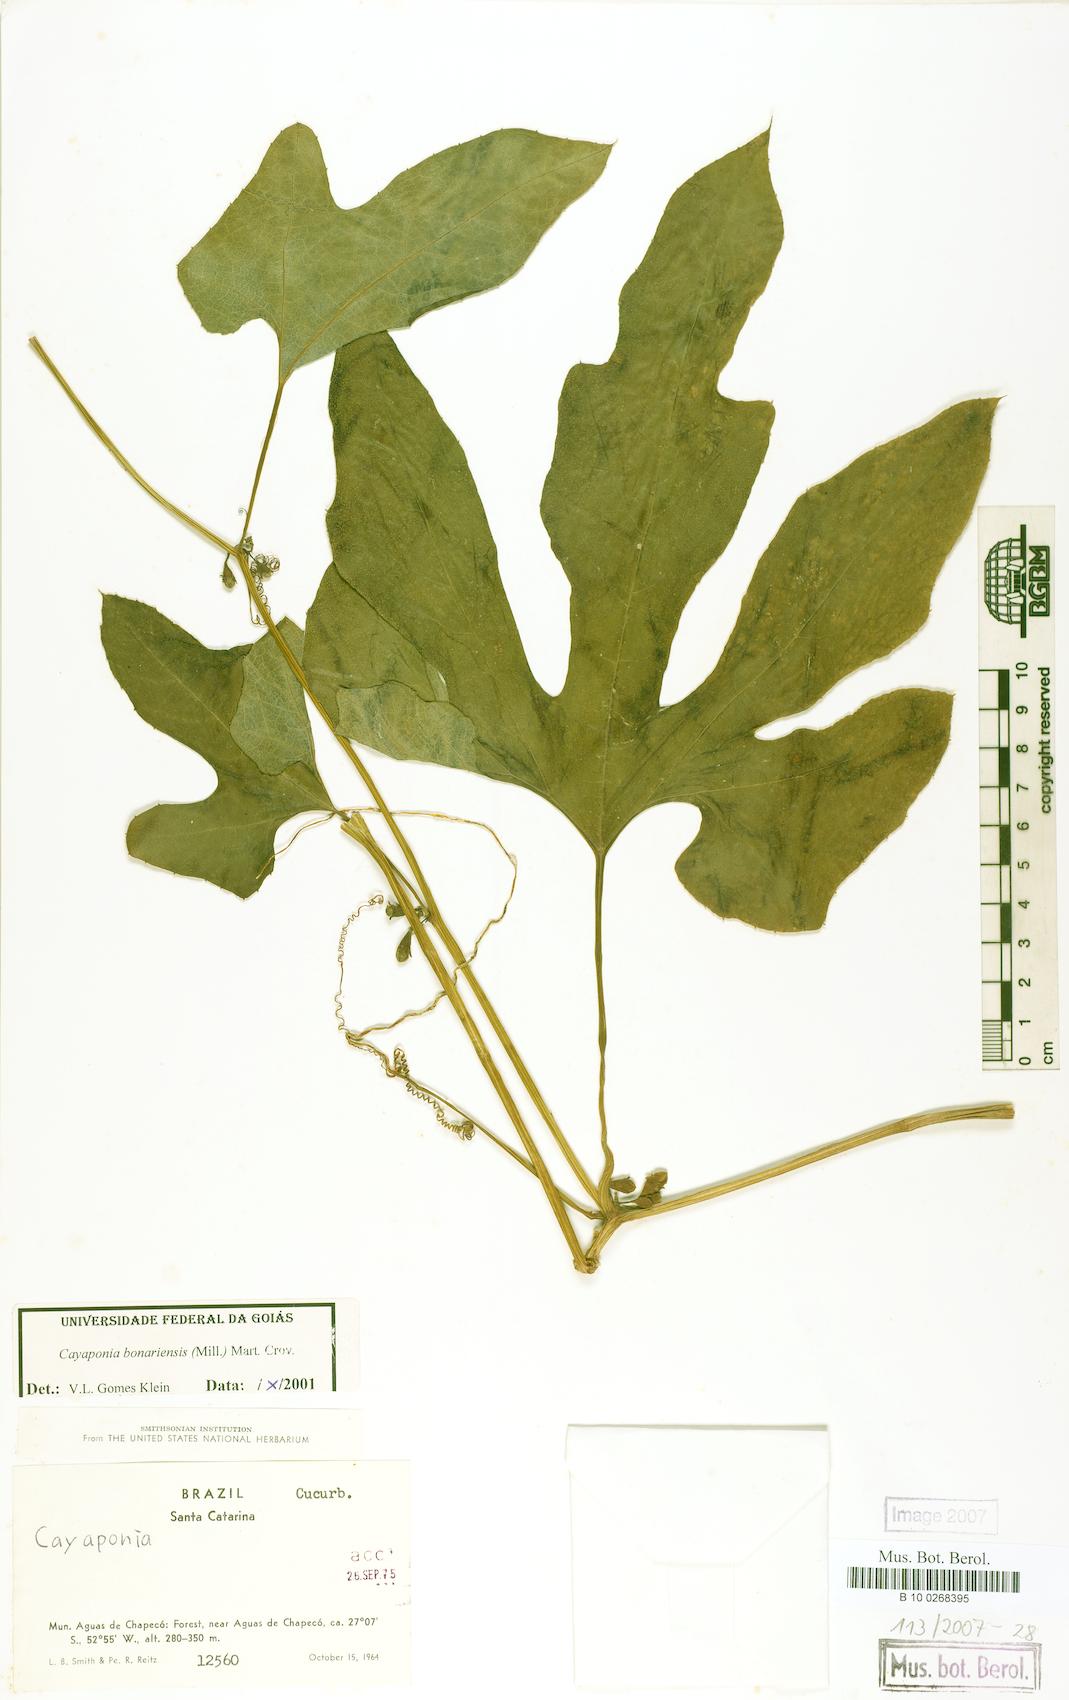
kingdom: Plantae
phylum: Tracheophyta
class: Magnoliopsida
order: Cucurbitales
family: Cucurbitaceae
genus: Cayaponia
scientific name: Cayaponia bonariensis
